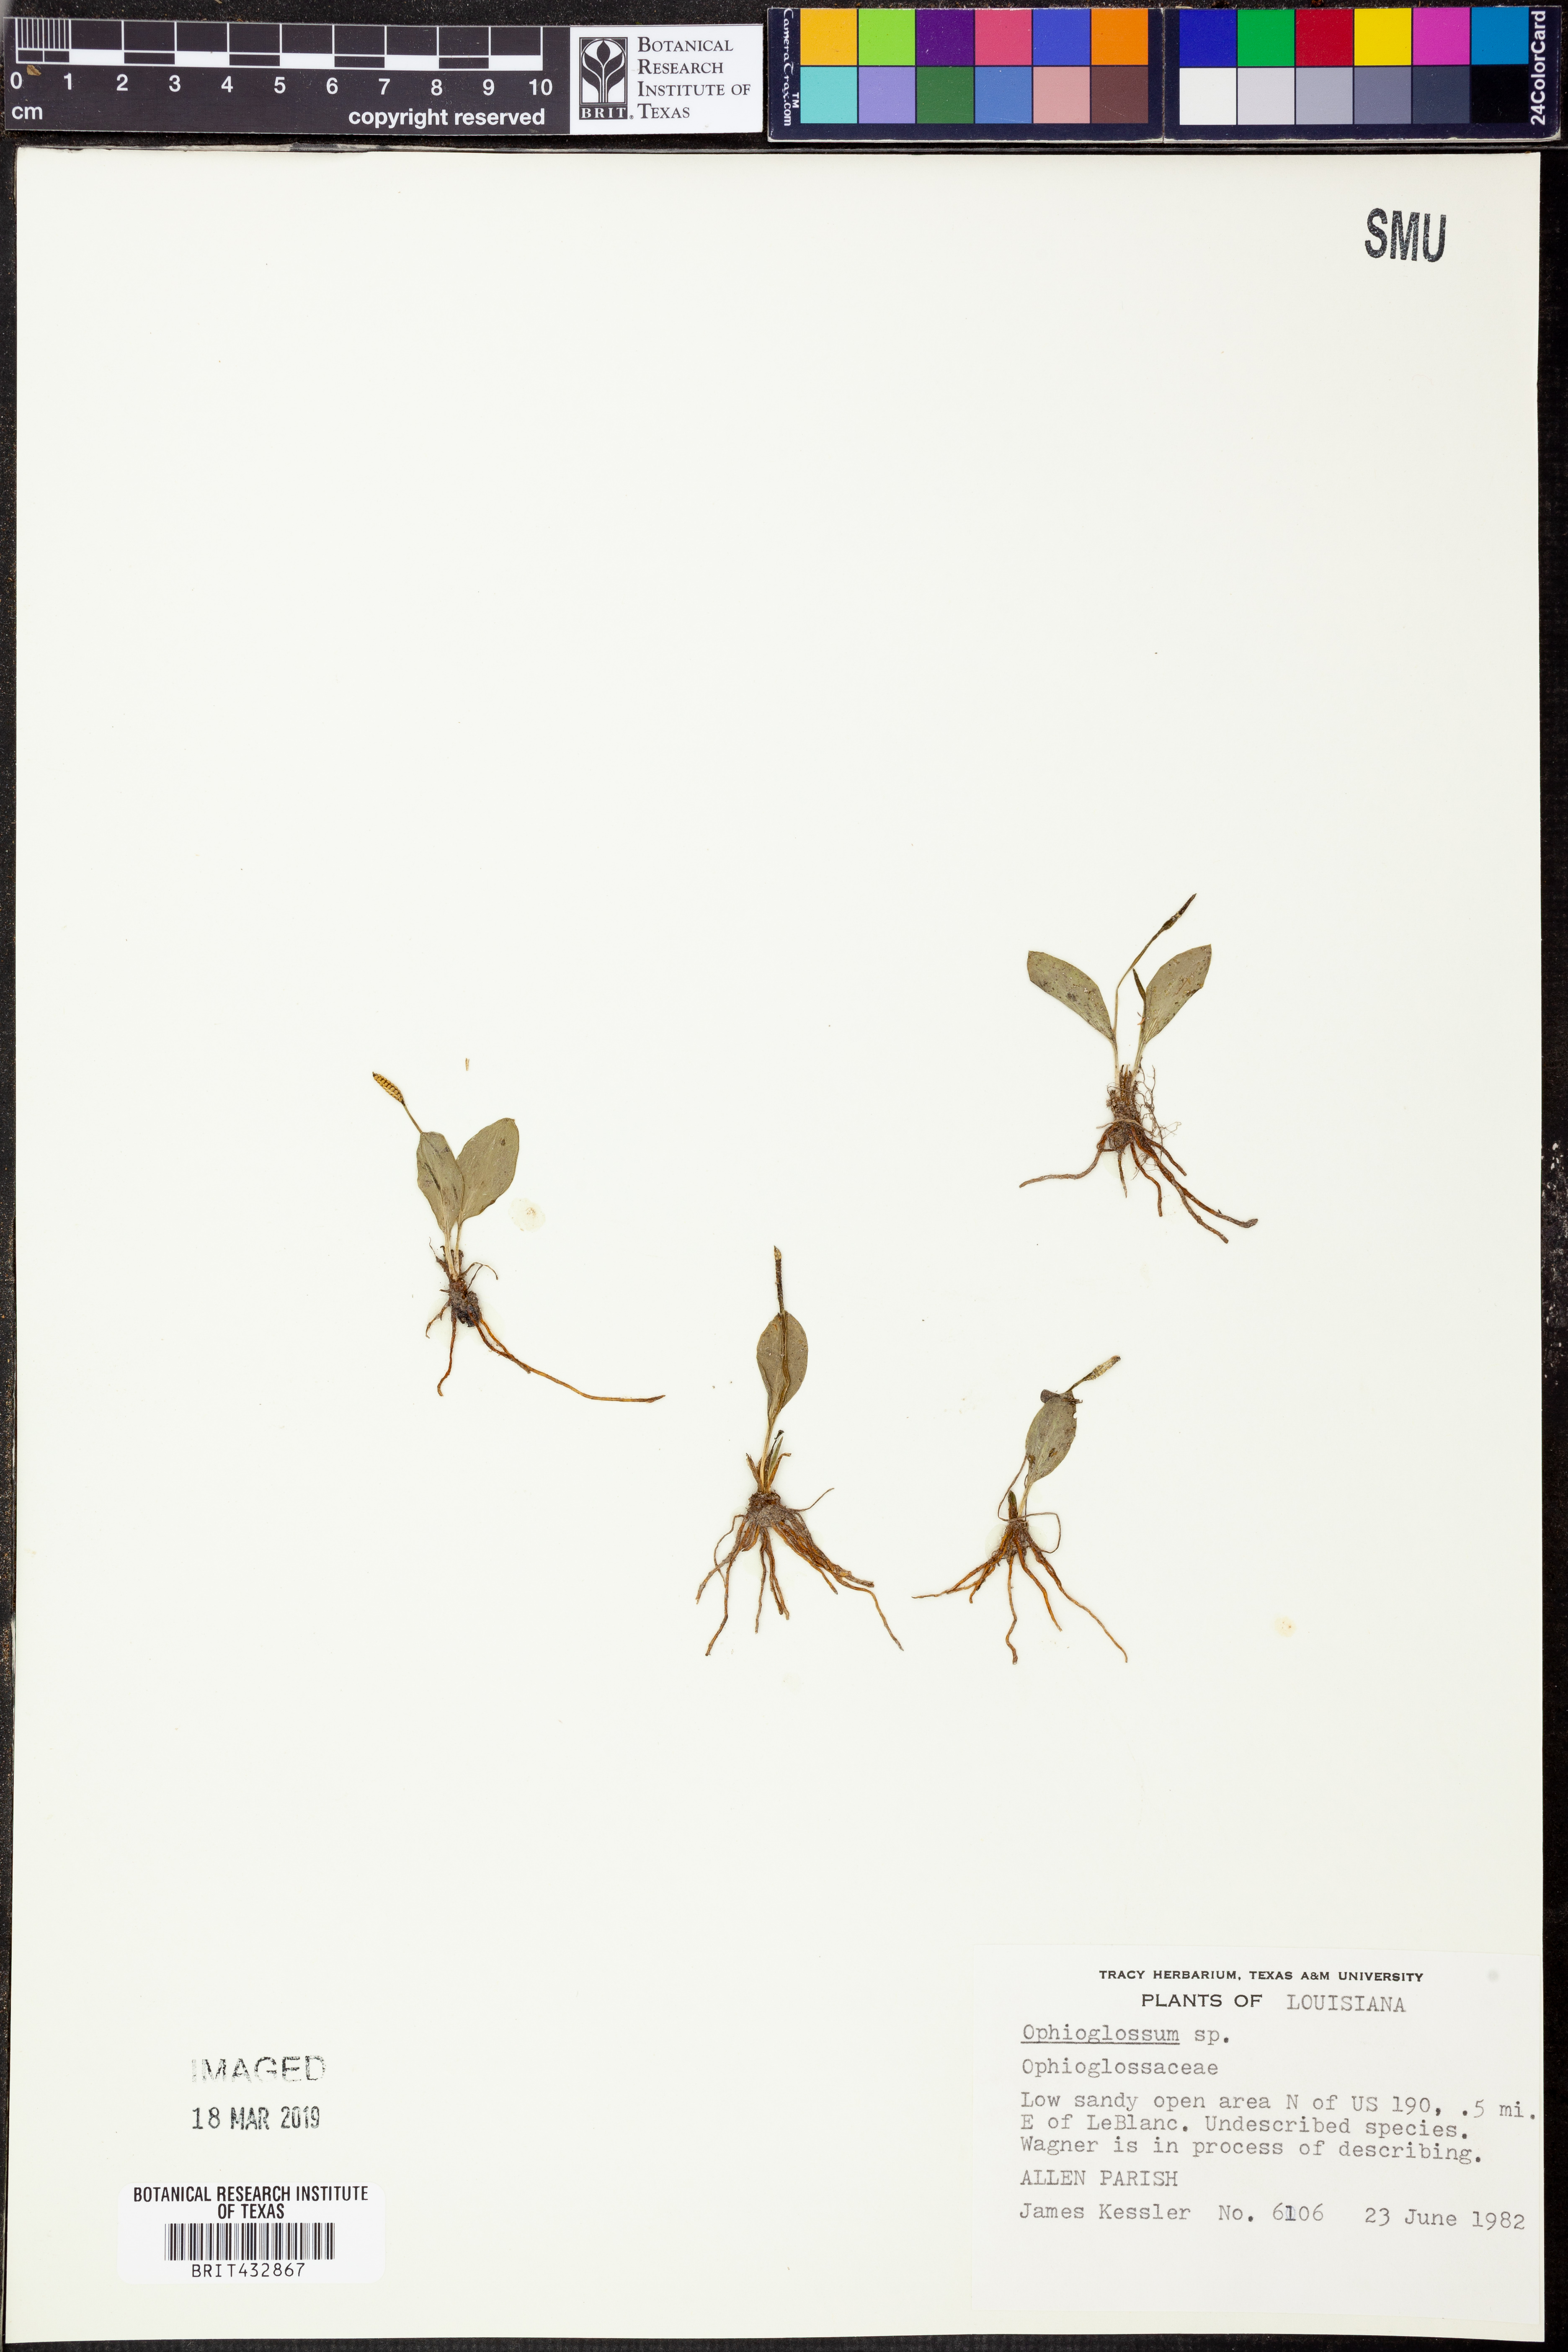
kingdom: Plantae
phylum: Tracheophyta
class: Polypodiopsida
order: Ophioglossales
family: Ophioglossaceae
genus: Ophioglossum
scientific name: Ophioglossum
